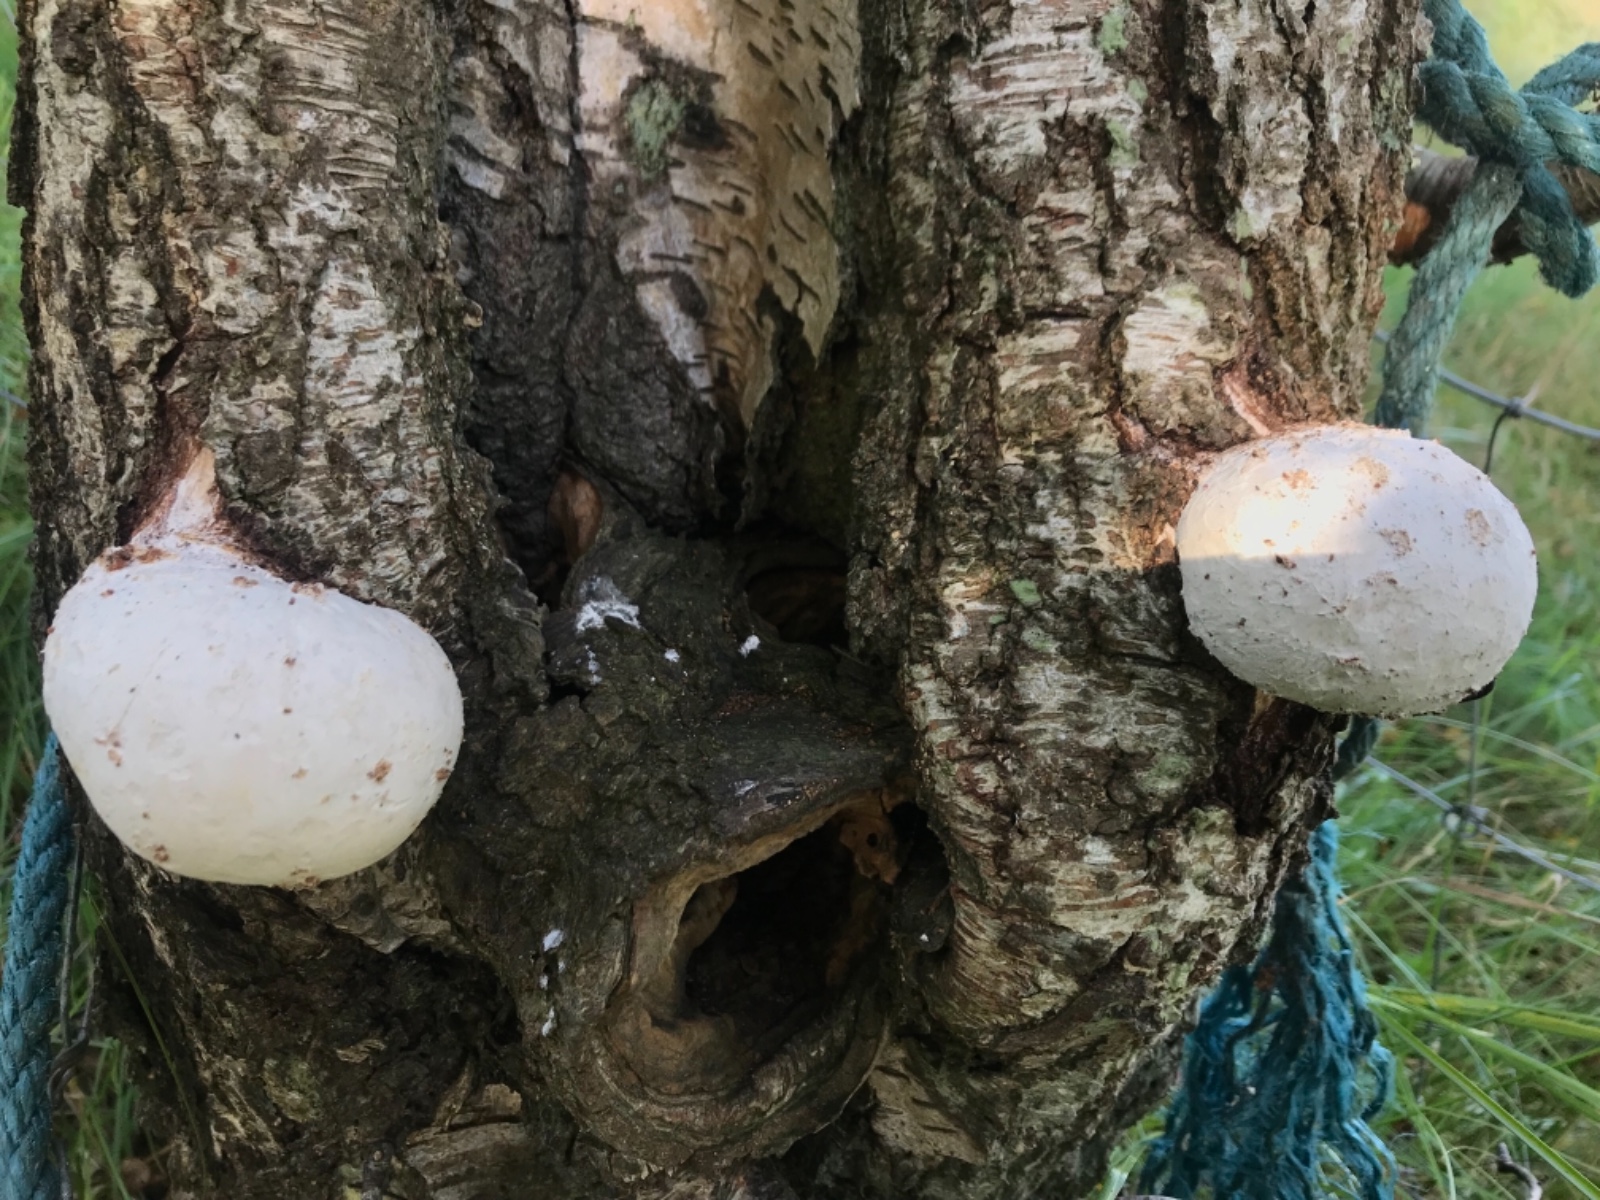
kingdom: Fungi
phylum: Basidiomycota
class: Agaricomycetes
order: Polyporales
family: Fomitopsidaceae
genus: Fomitopsis
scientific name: Fomitopsis betulina
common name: birkeporesvamp
